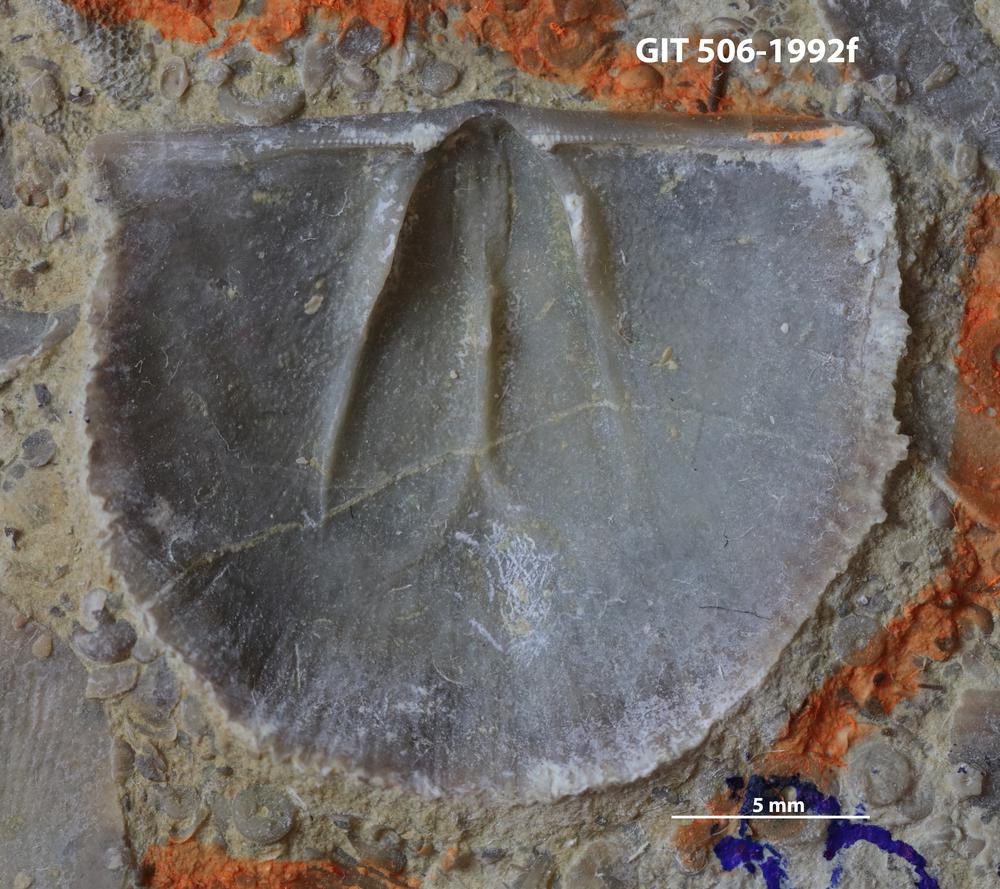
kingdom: Animalia
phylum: Brachiopoda
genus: Janiomya
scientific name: Janiomya Strophomena ornatella
